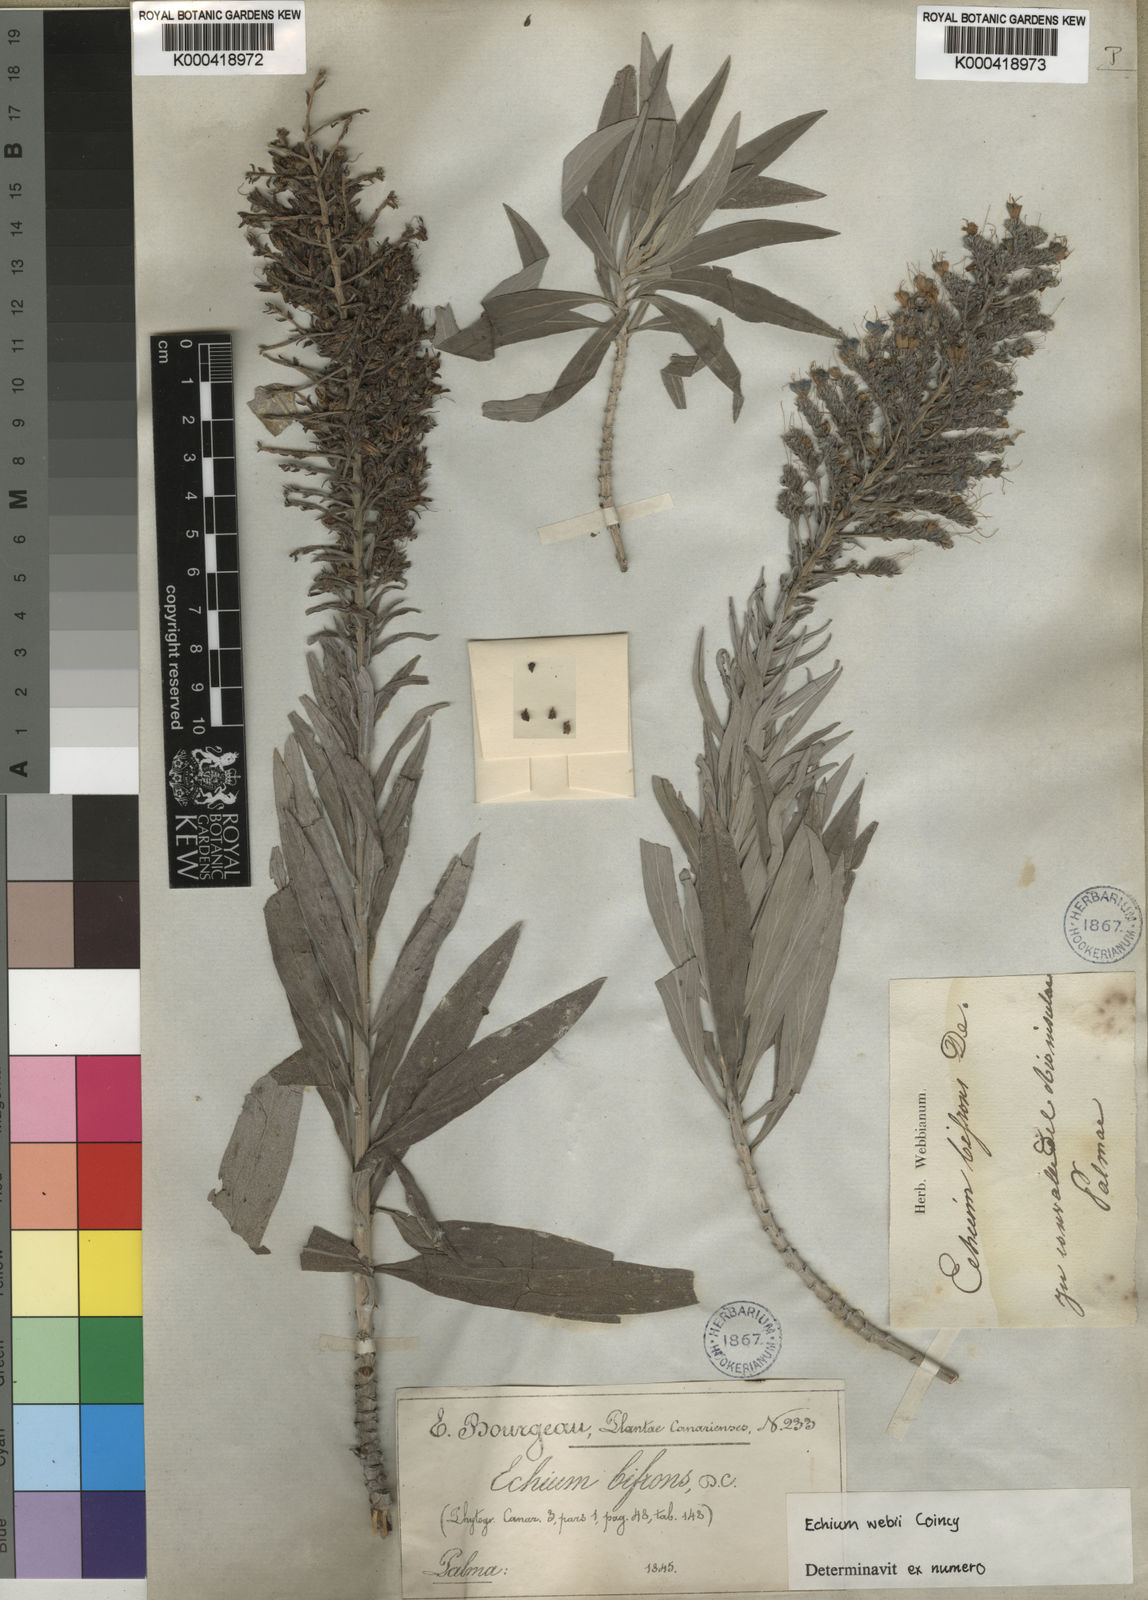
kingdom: Plantae
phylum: Tracheophyta
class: Magnoliopsida
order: Boraginales
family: Boraginaceae
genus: Echium
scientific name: Echium webbii
